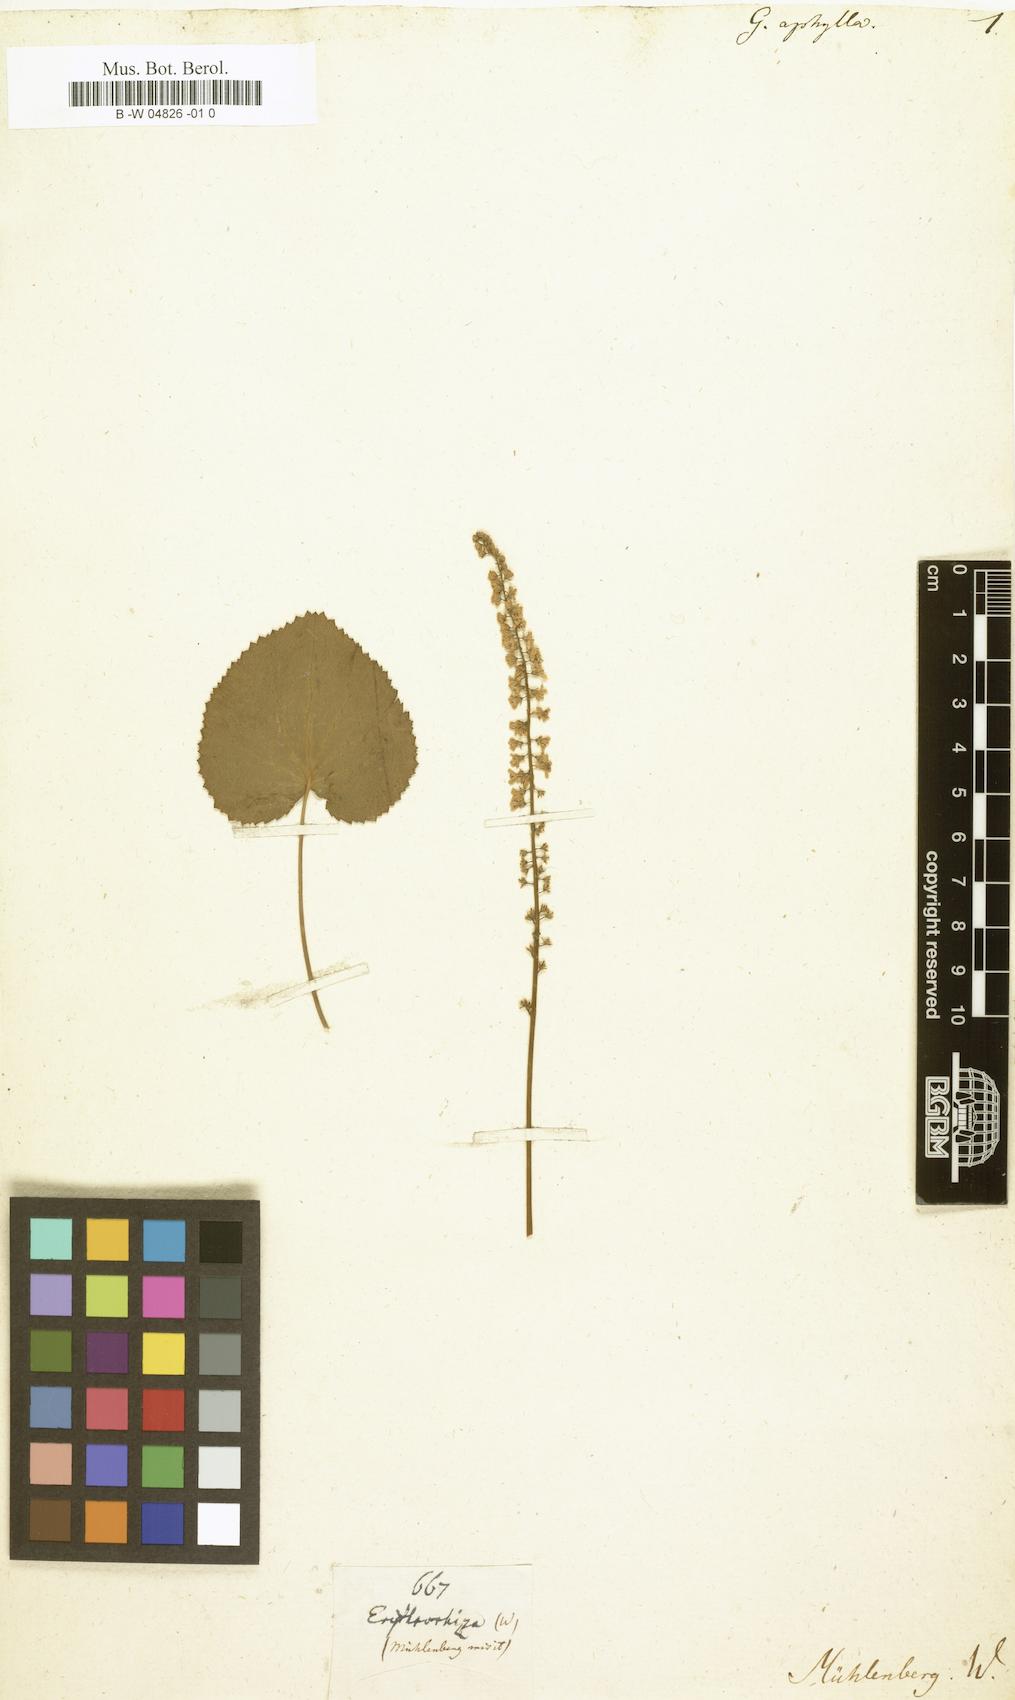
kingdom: Plantae
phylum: Tracheophyta
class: Magnoliopsida
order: Boraginales
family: Hydrophyllaceae
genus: Nemophila
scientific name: Nemophila aphylla
